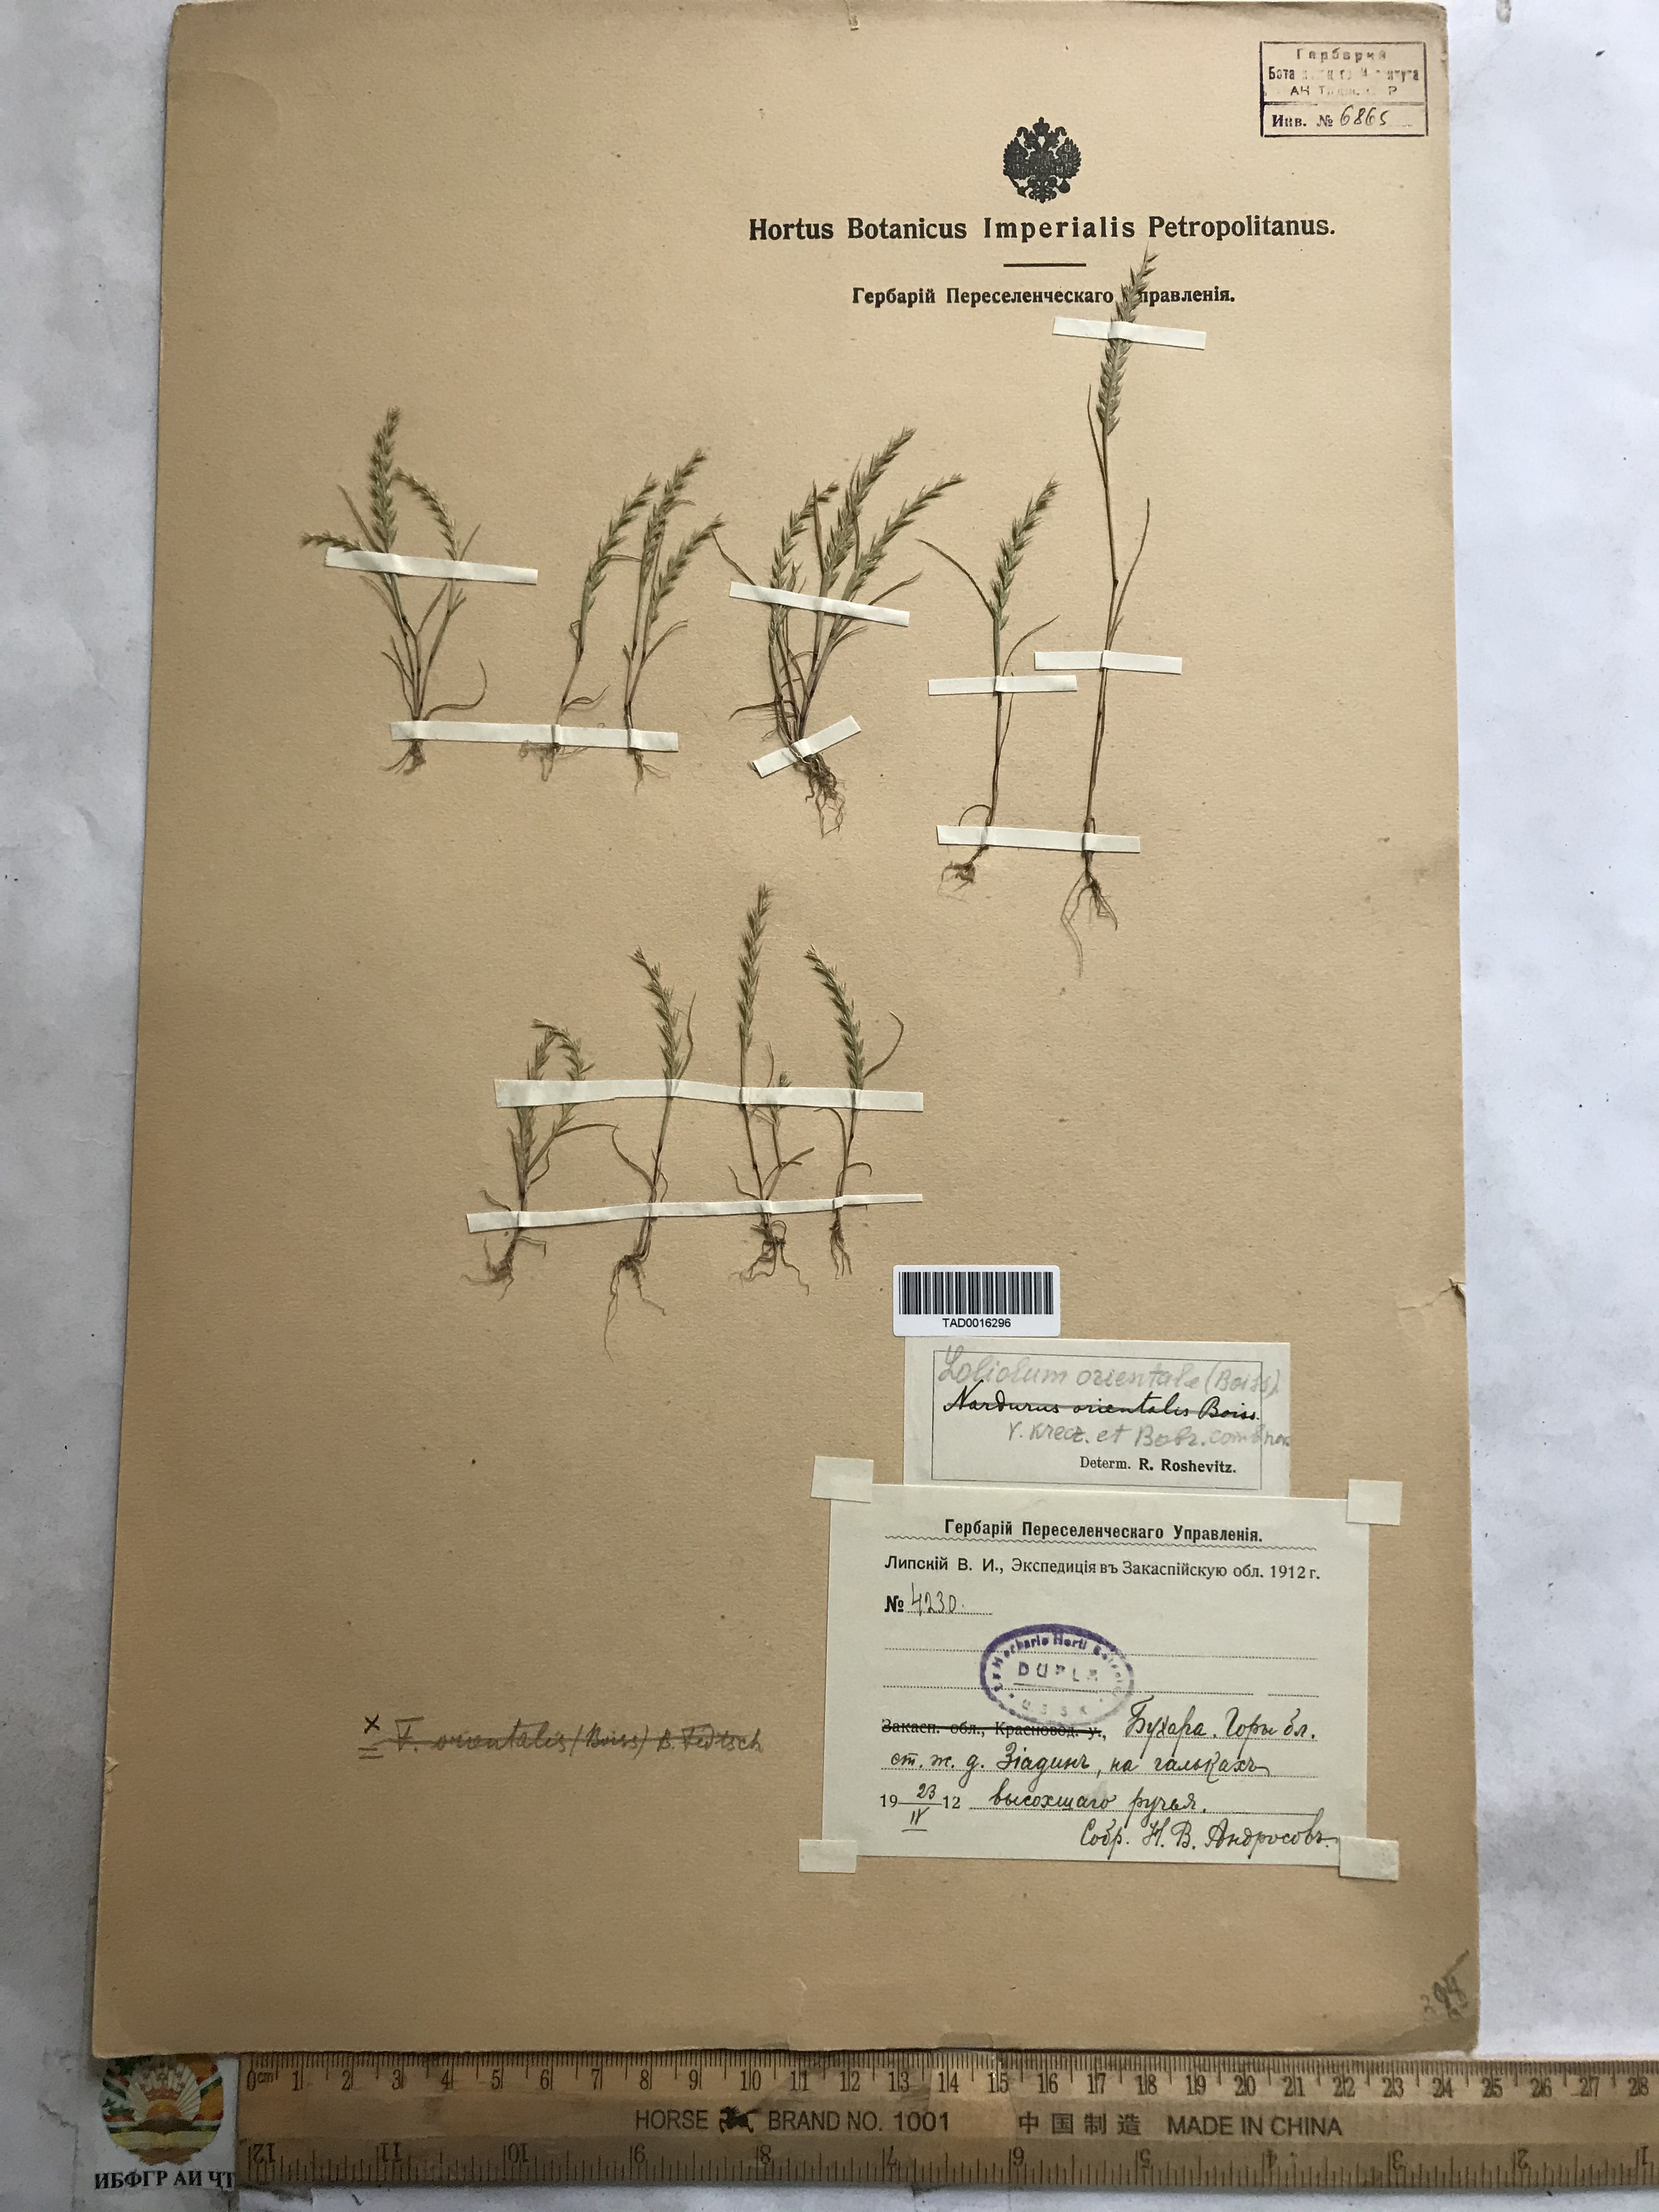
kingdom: Plantae
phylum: Tracheophyta
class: Liliopsida
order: Poales
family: Poaceae
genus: Festuca
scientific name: Festuca orientalis
